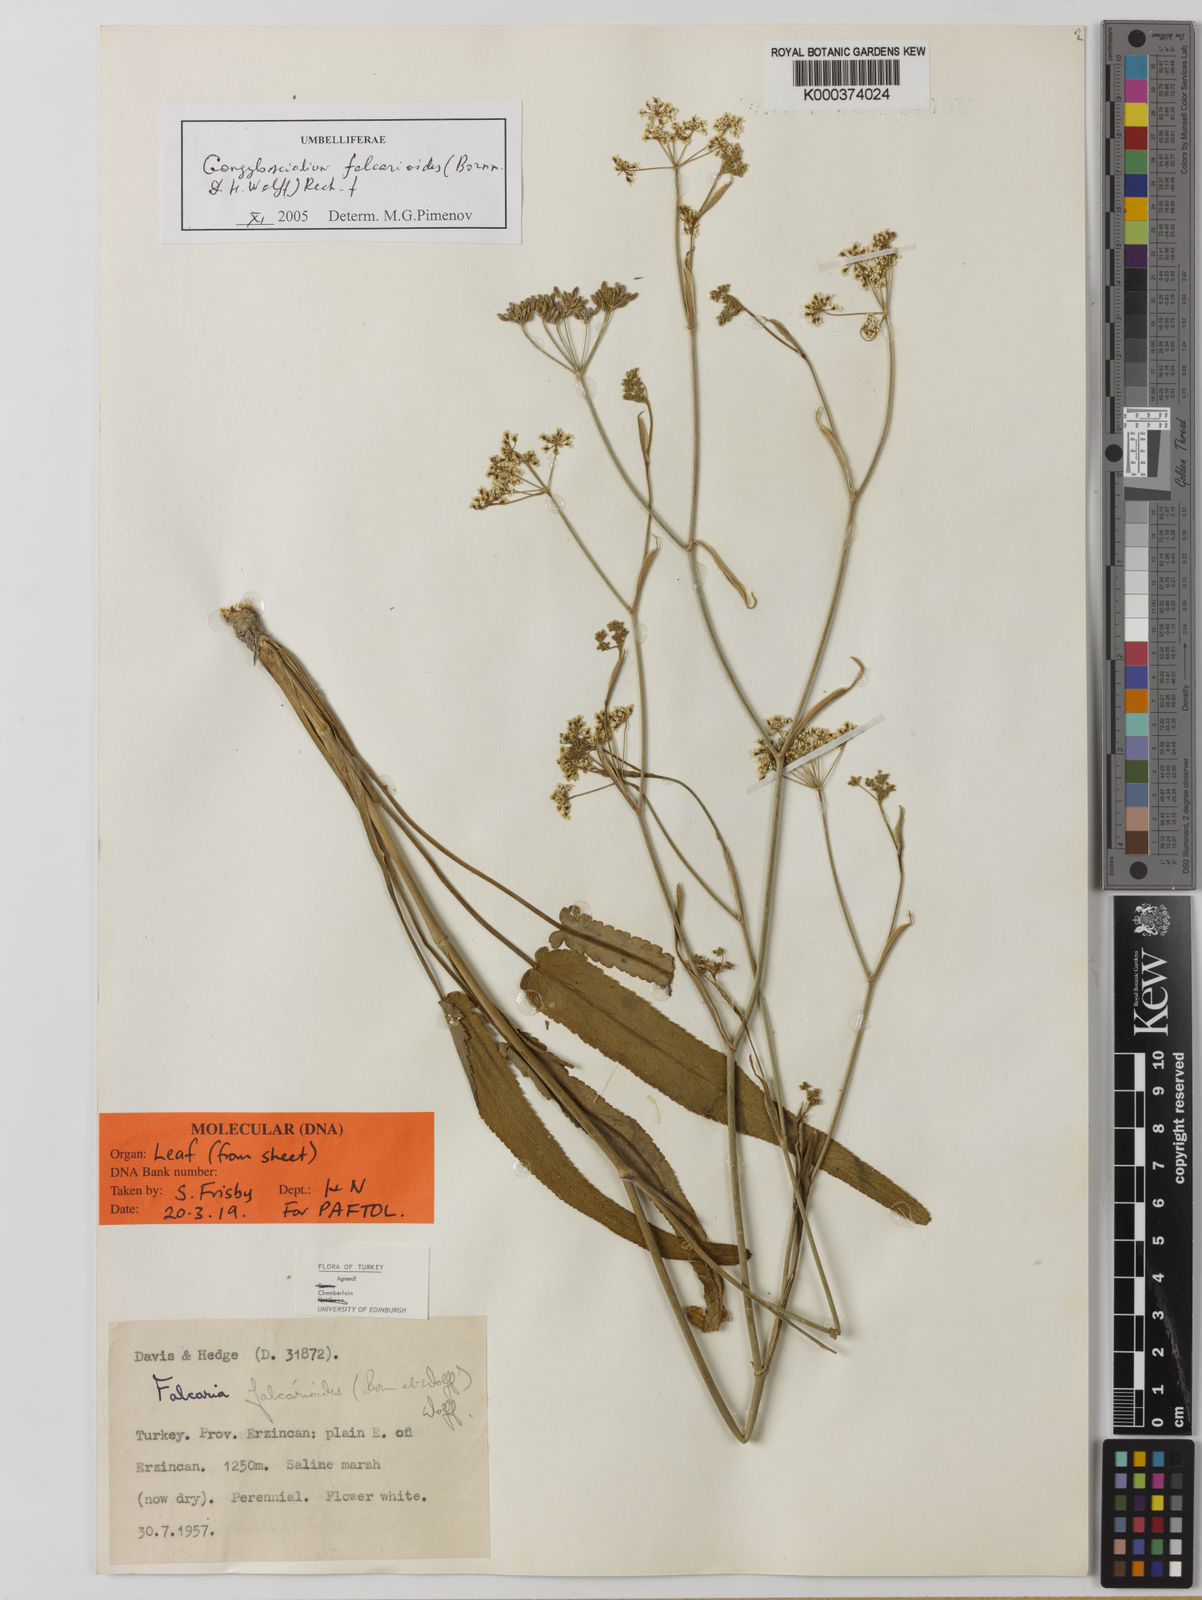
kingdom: Plantae
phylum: Tracheophyta
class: Magnoliopsida
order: Apiales
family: Apiaceae
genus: Gongylosciadium
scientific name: Gongylosciadium
